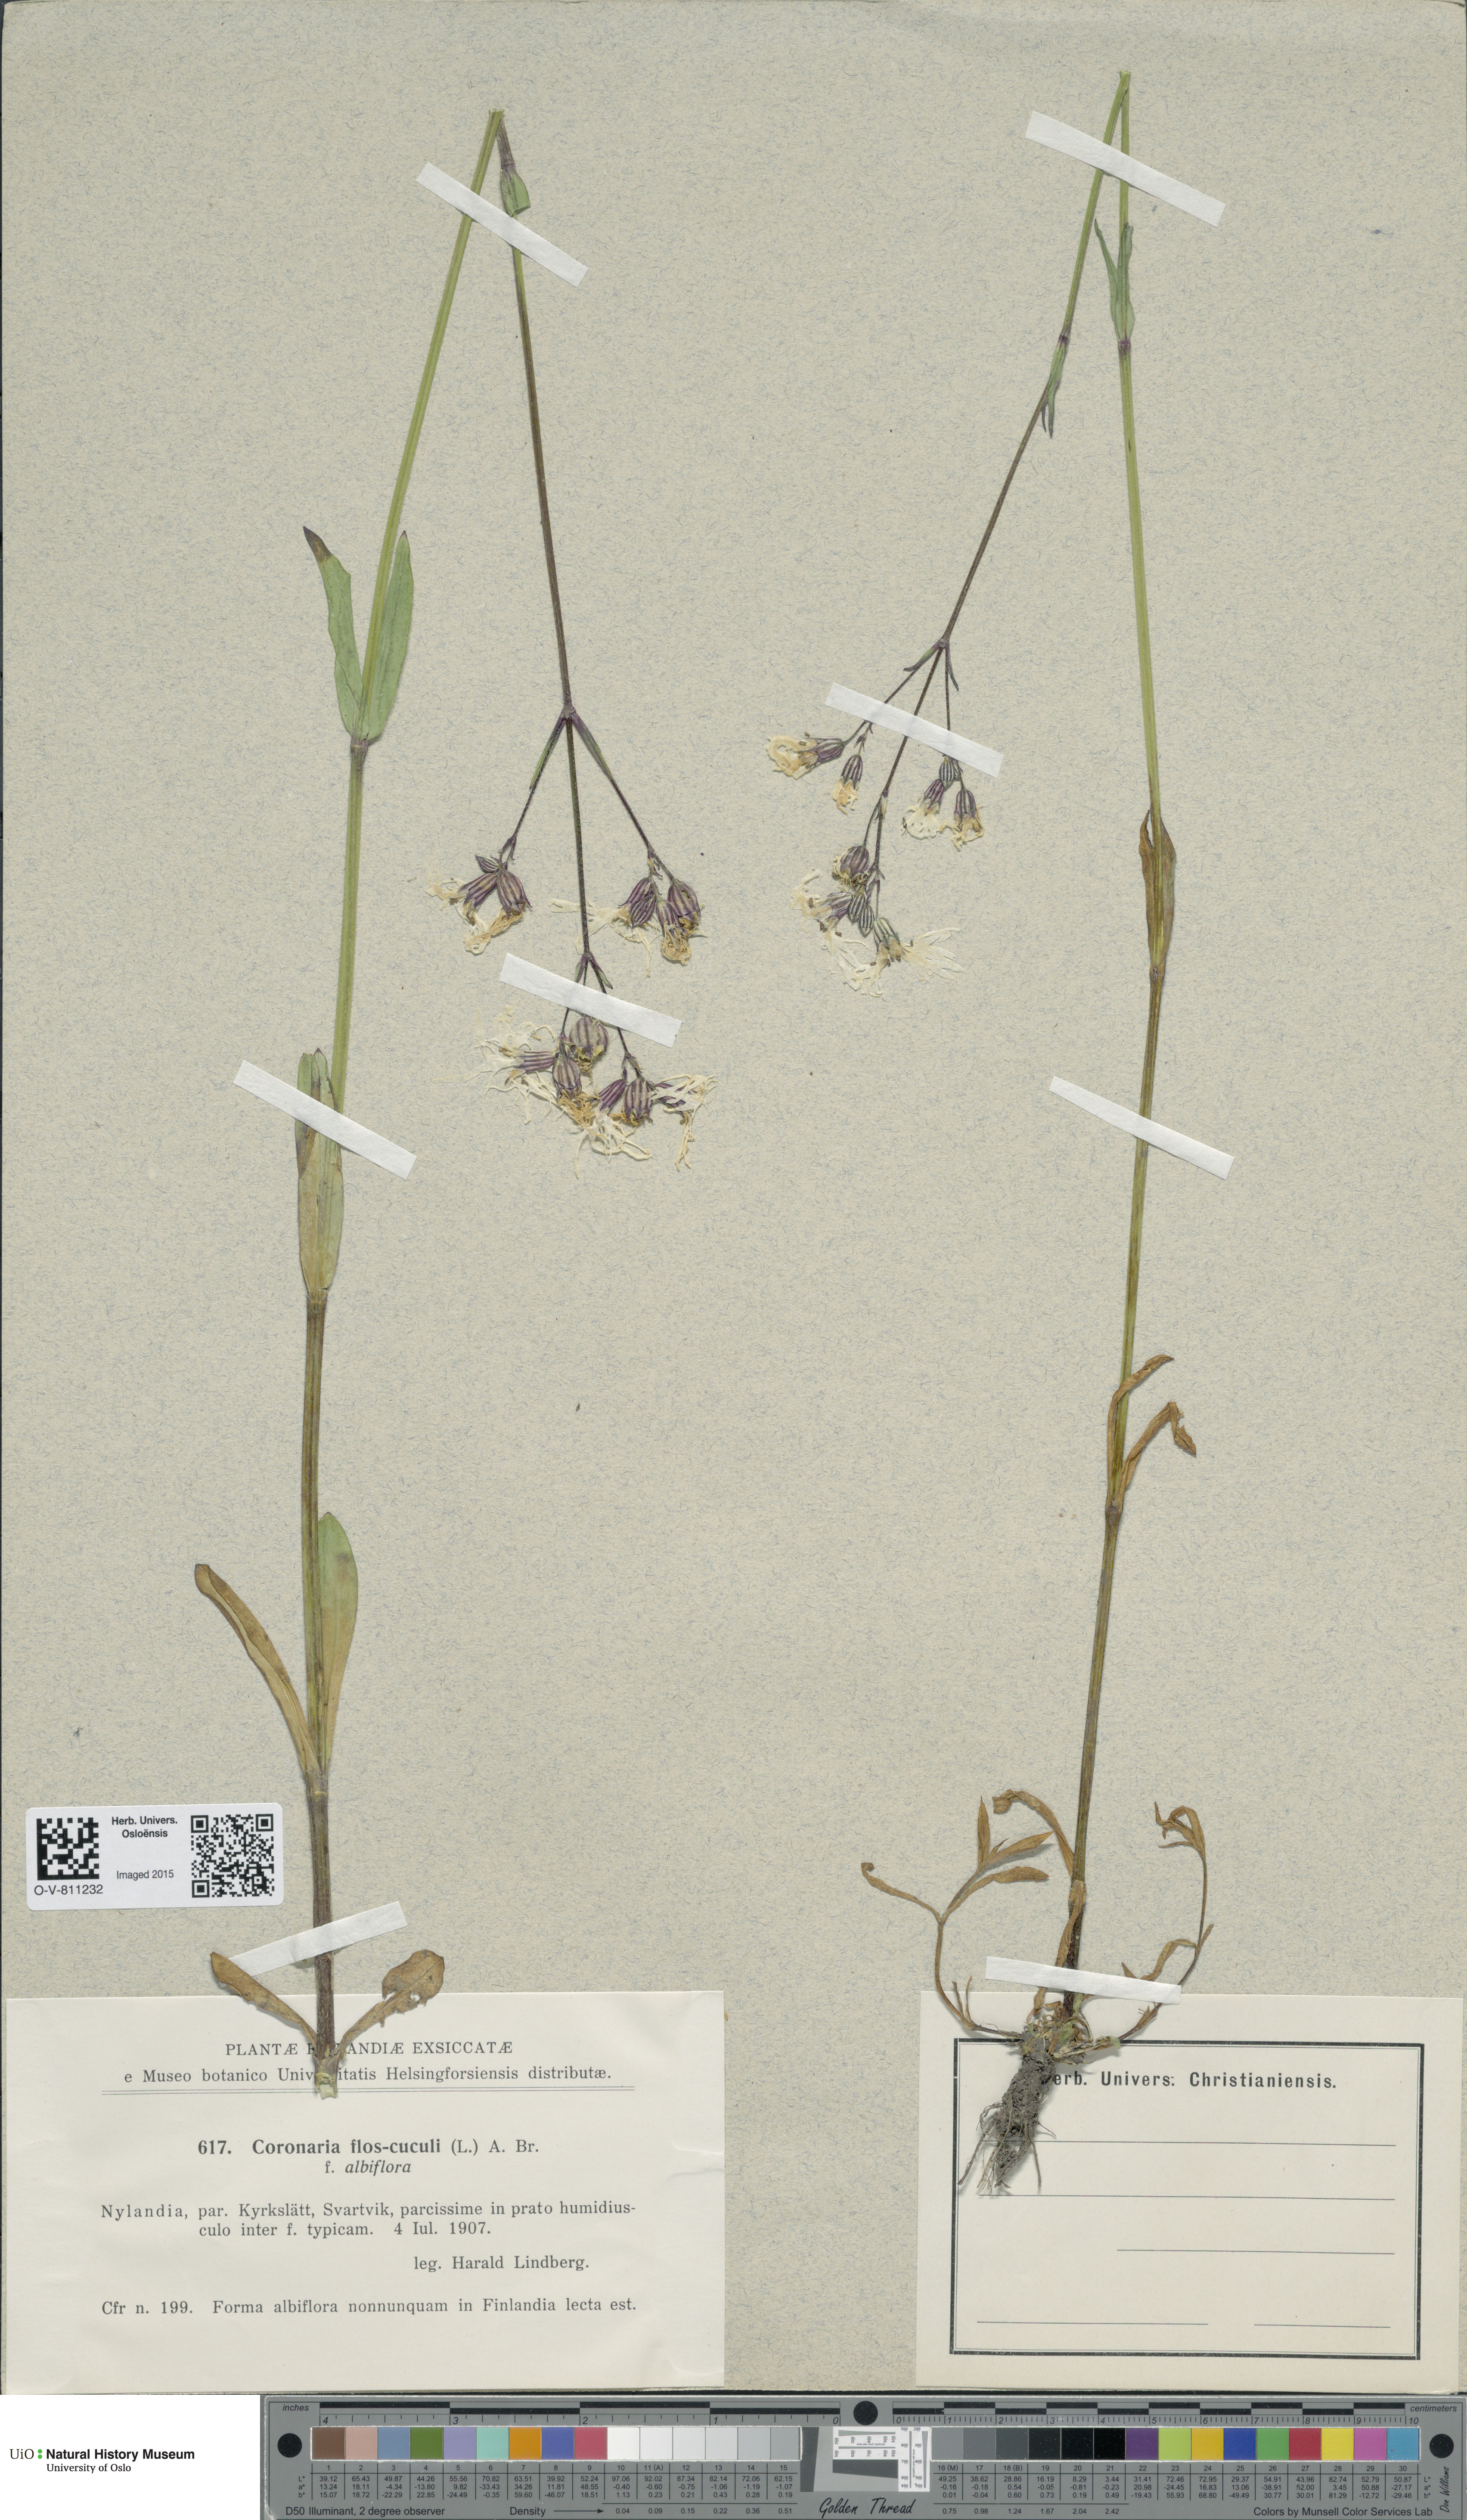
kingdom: Plantae
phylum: Tracheophyta
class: Magnoliopsida
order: Caryophyllales
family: Caryophyllaceae
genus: Silene
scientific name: Silene flos-cuculi
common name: Ragged-robin
